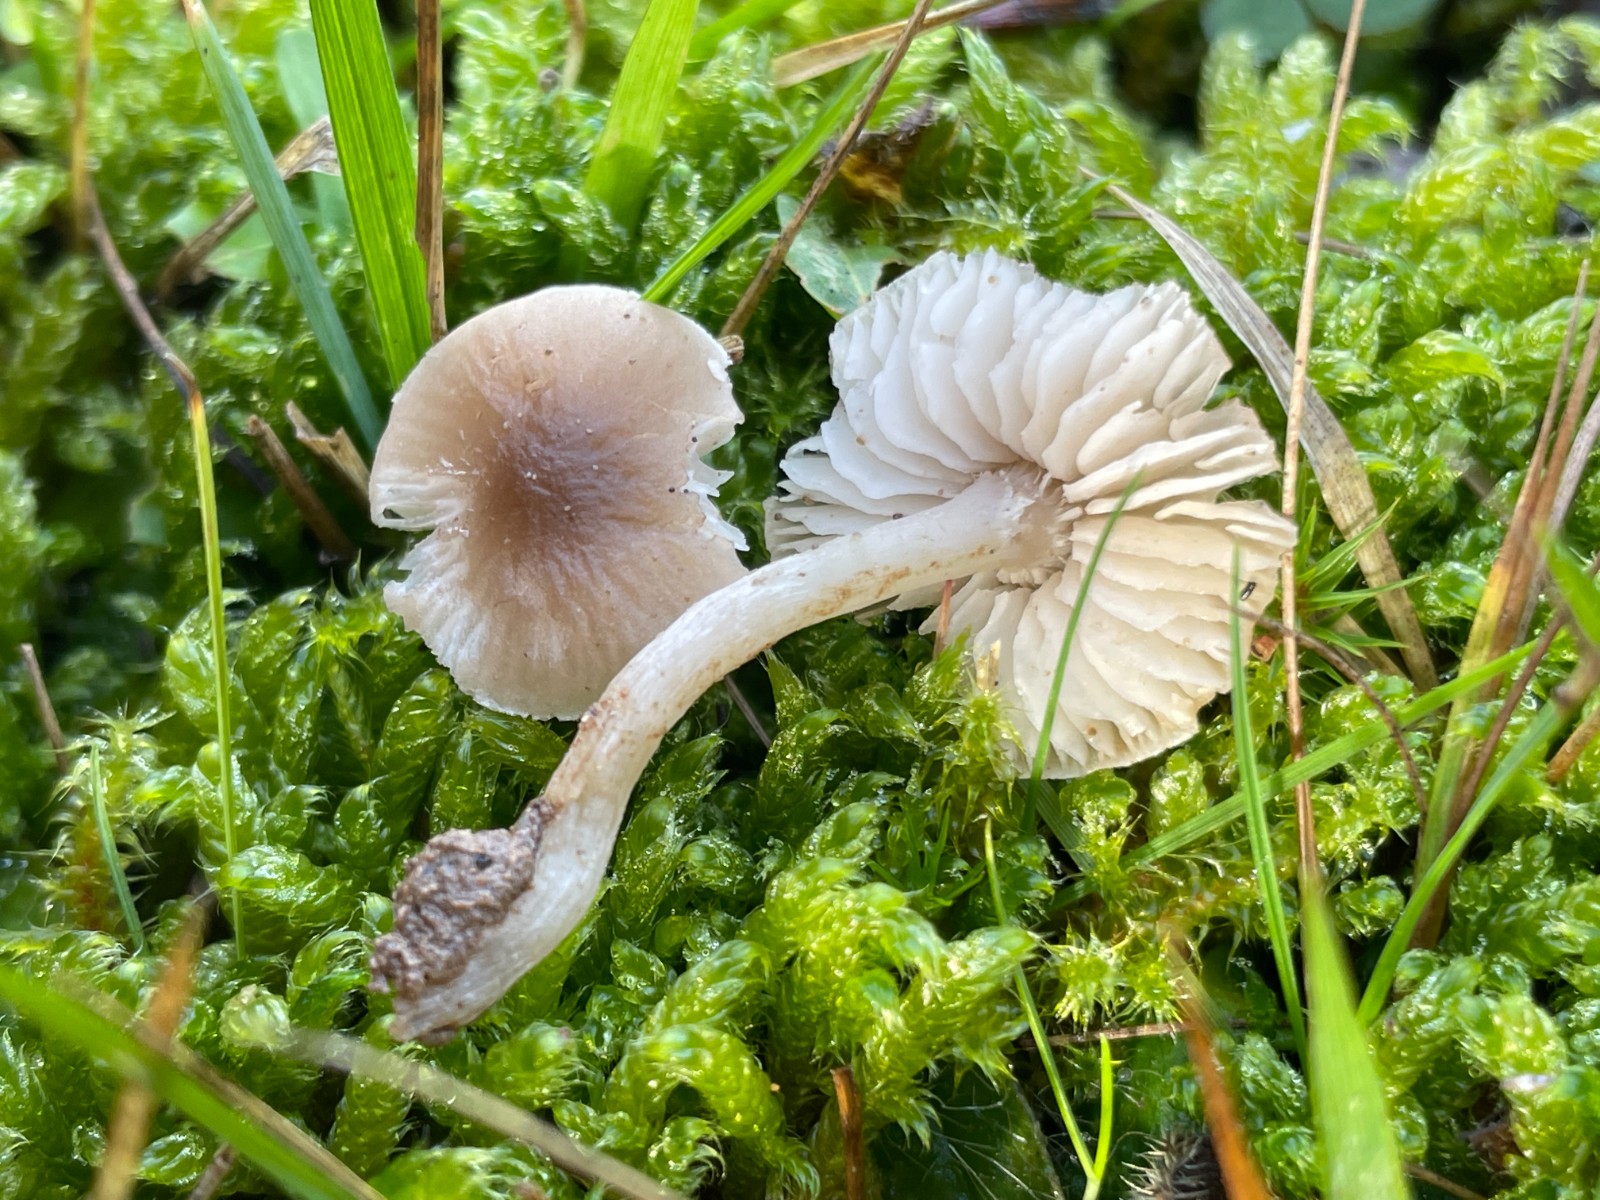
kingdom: Fungi
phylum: Basidiomycota
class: Agaricomycetes
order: Agaricales
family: Tricholomataceae
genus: Dermoloma
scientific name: Dermoloma cuneifolium
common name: eng-nonnehat
